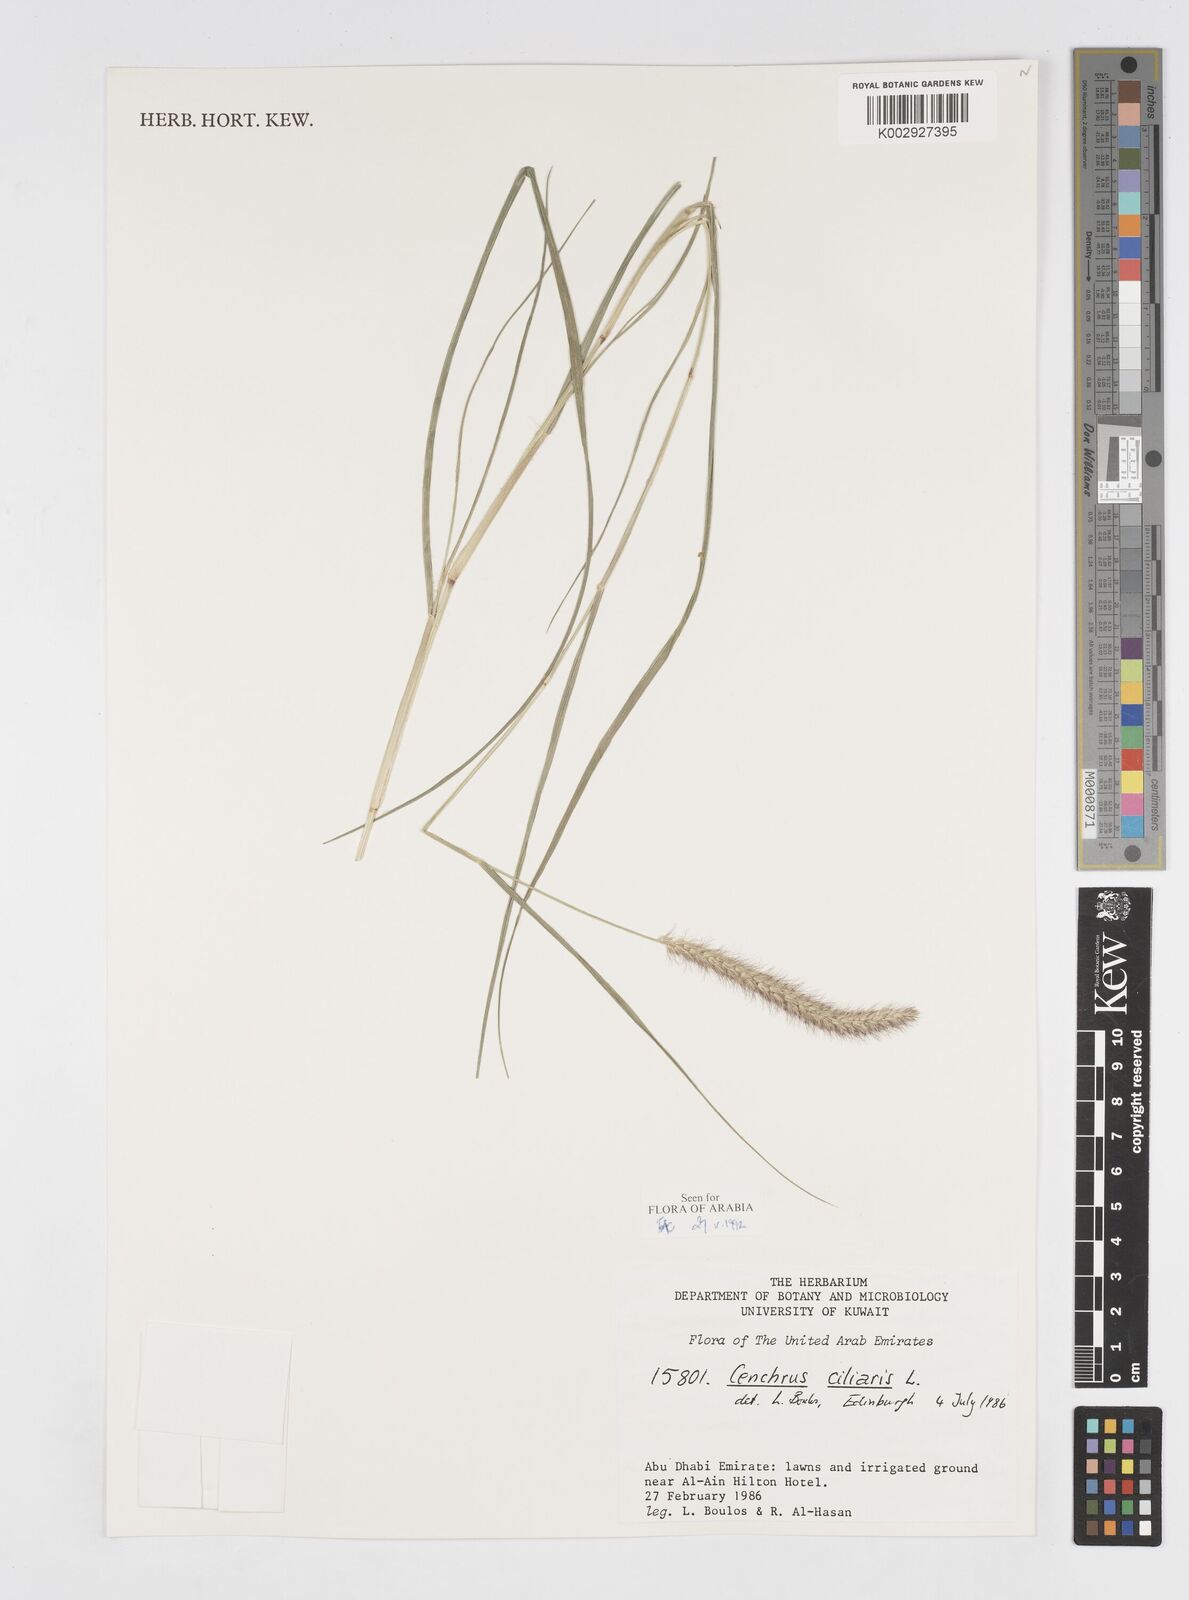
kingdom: Plantae
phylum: Tracheophyta
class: Liliopsida
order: Poales
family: Poaceae
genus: Cenchrus
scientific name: Cenchrus ciliaris
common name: Buffelgrass
